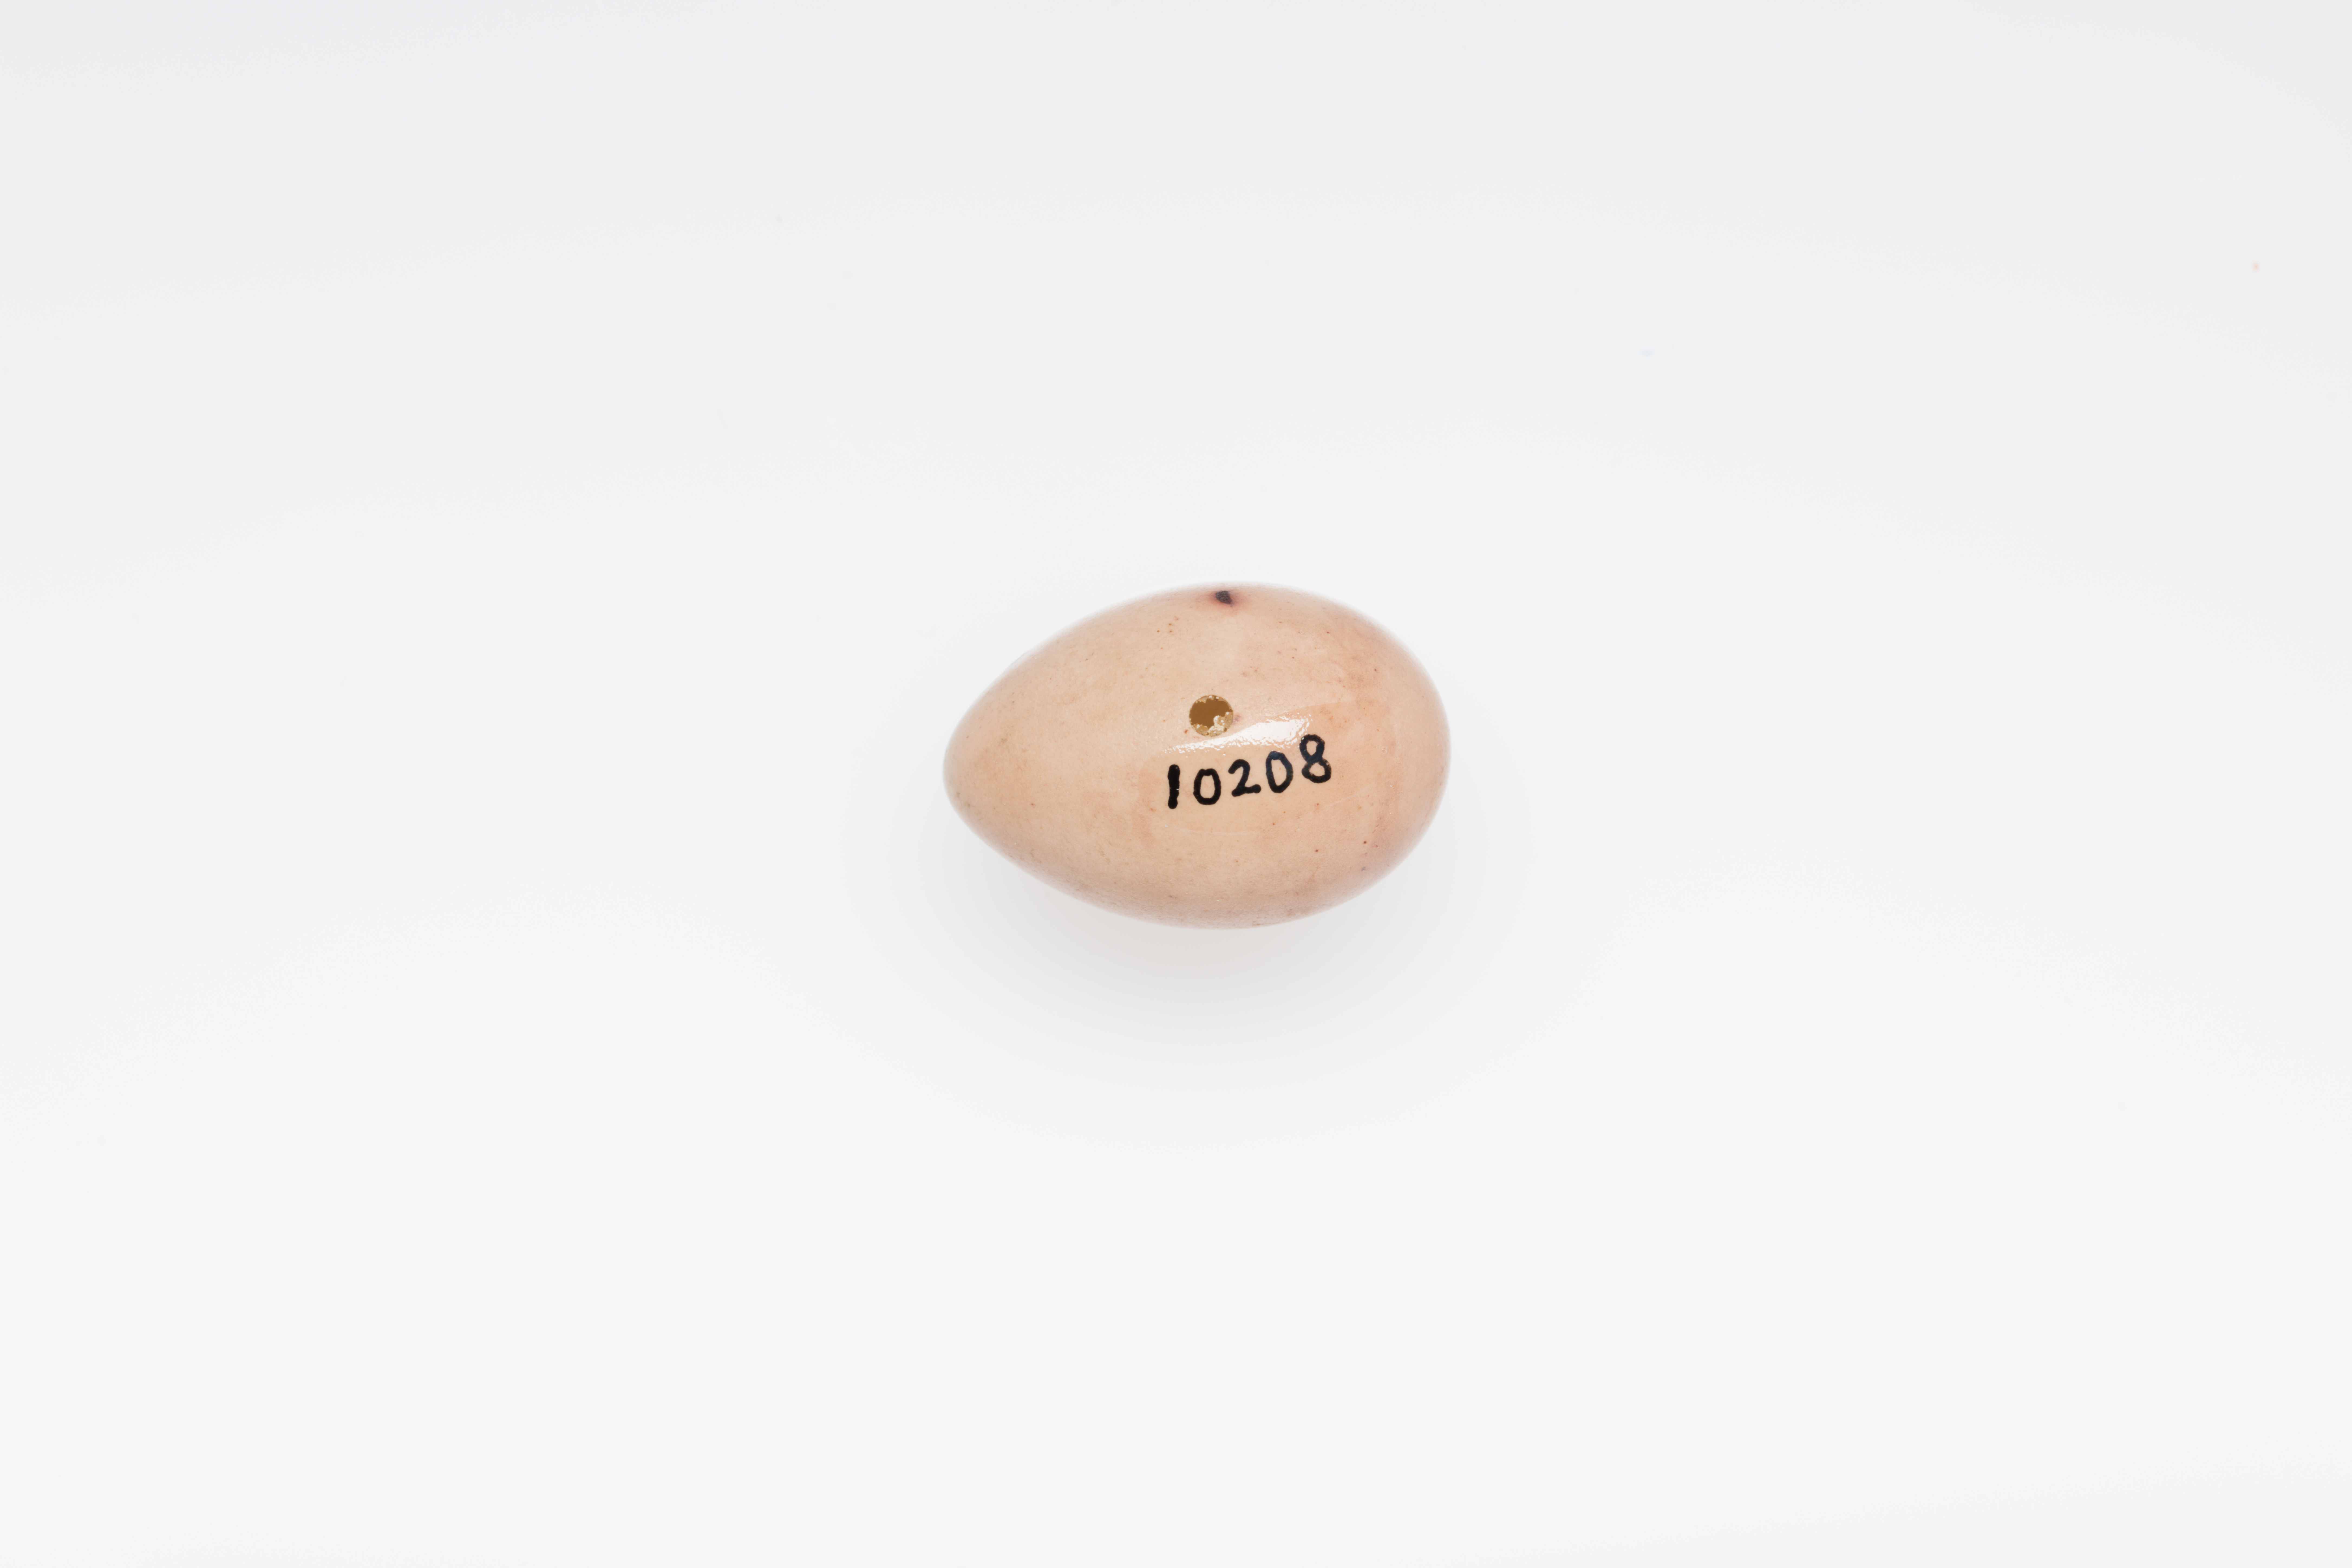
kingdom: Animalia
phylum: Chordata
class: Aves
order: Passeriformes
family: Fringillidae
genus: Fringilla
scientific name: Fringilla coelebs
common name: Common chaffinch
